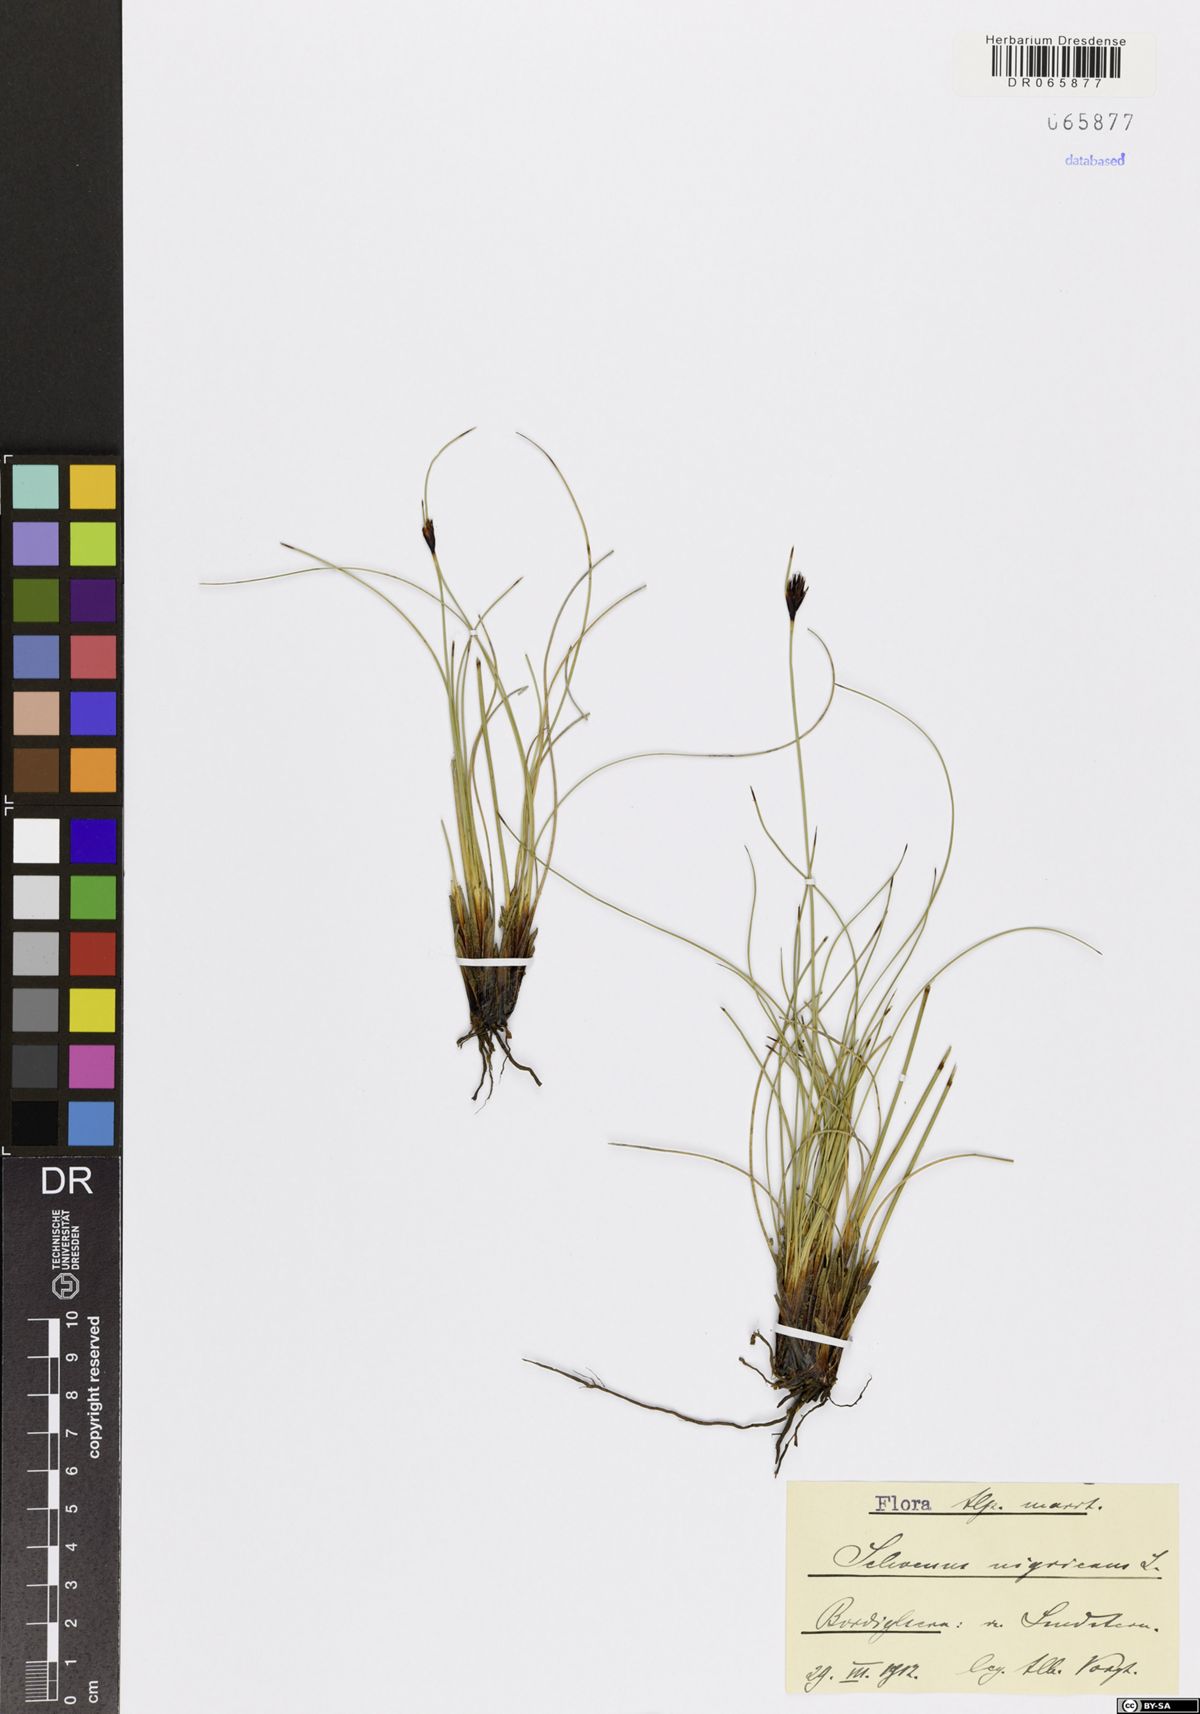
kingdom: Plantae
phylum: Tracheophyta
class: Liliopsida
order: Poales
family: Cyperaceae
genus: Schoenus
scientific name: Schoenus nigricans
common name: Black bog-rush
